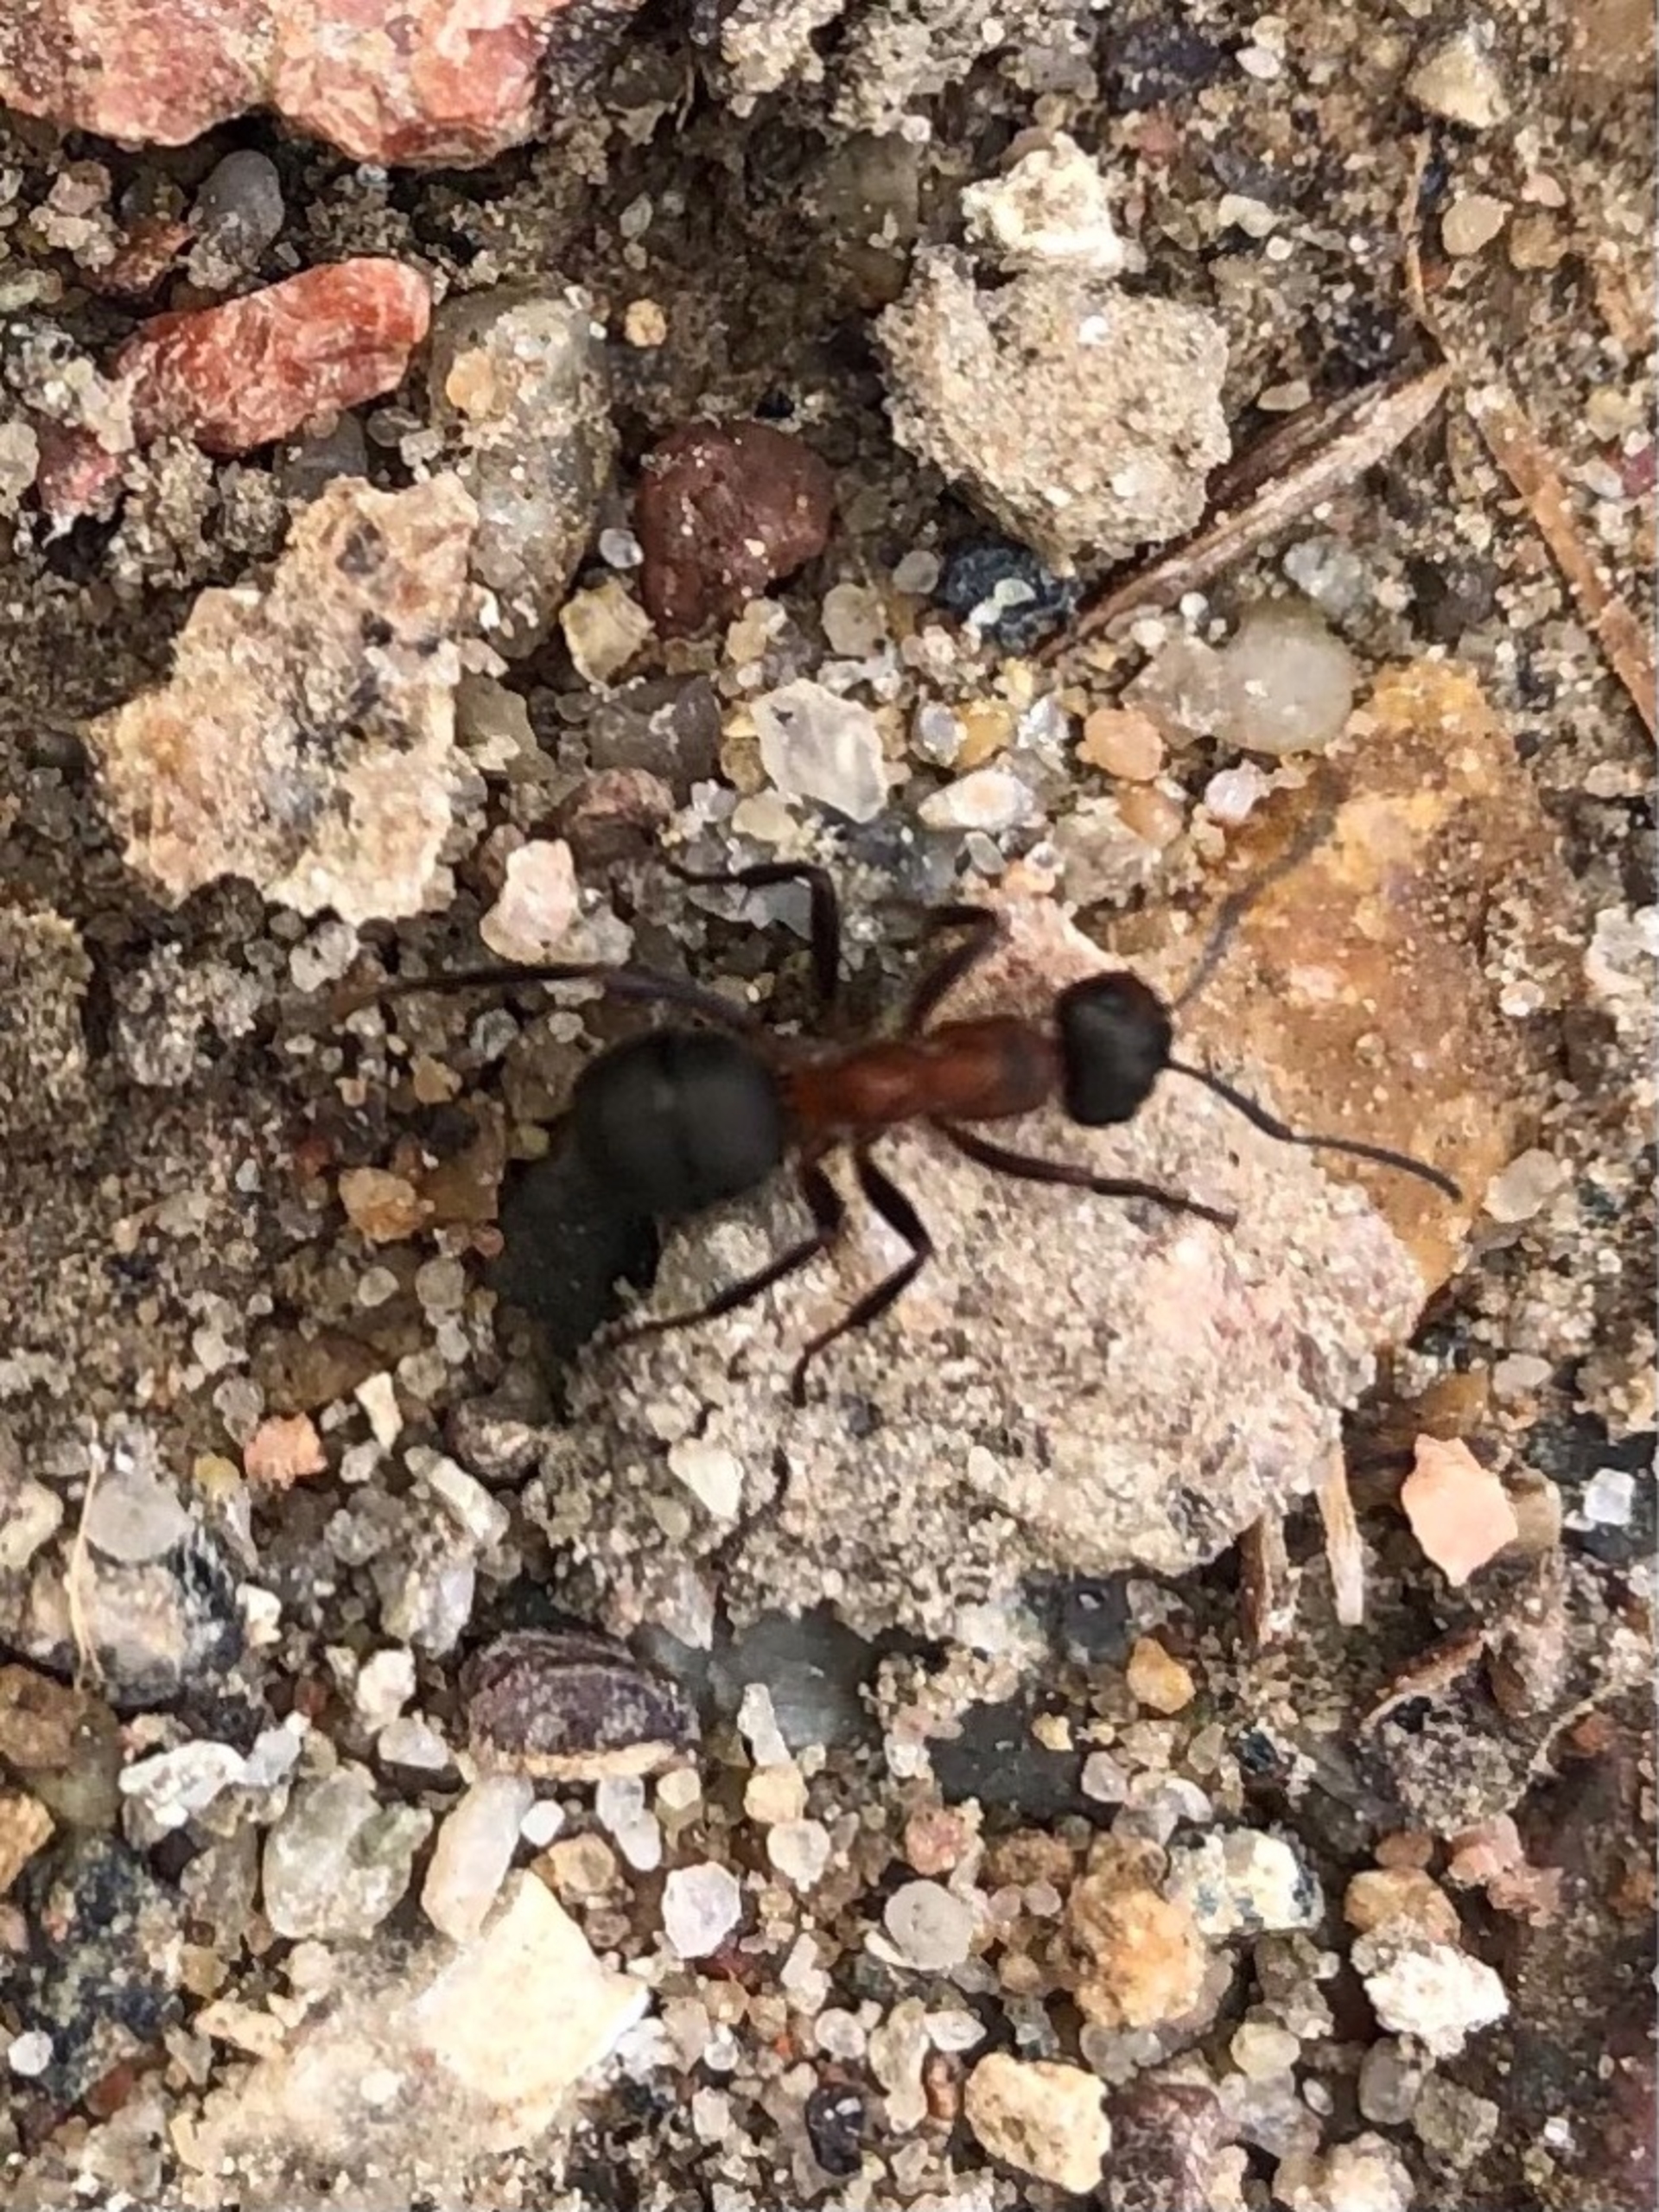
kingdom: Animalia
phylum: Arthropoda
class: Insecta
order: Hymenoptera
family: Formicidae
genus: Formica
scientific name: Formica
